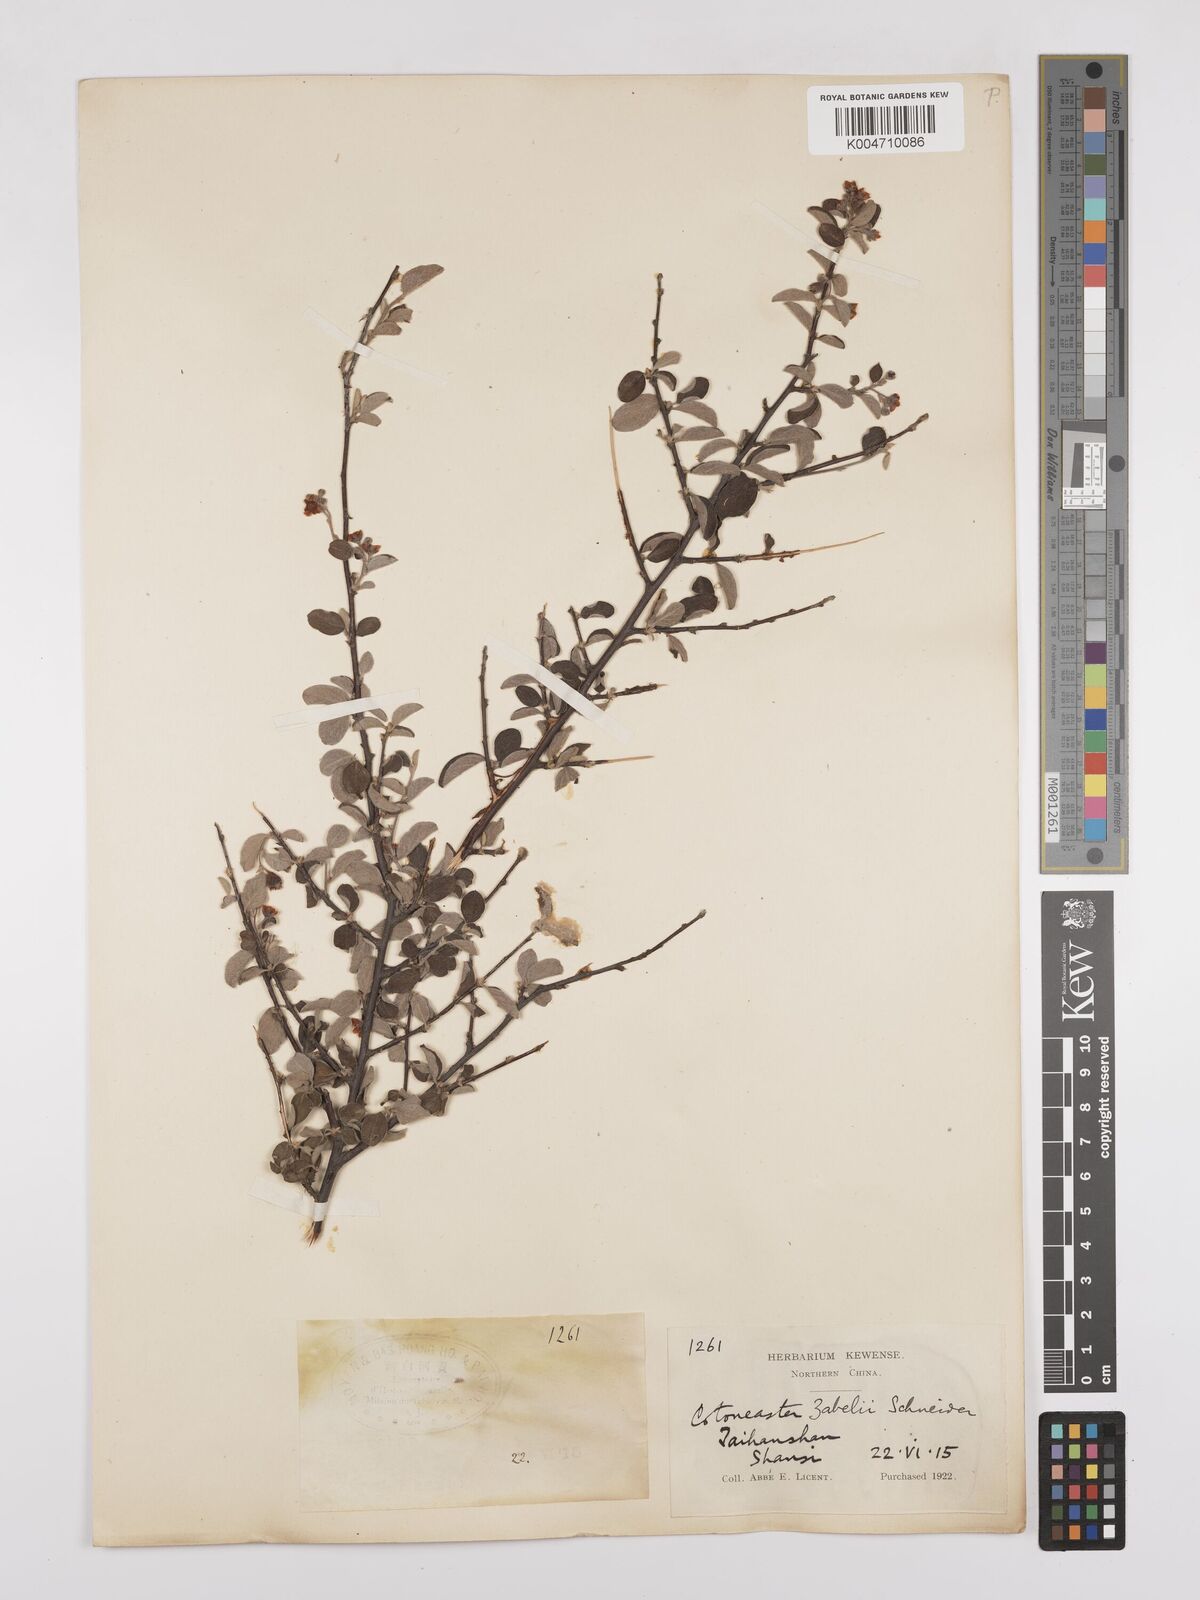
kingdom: Plantae
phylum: Tracheophyta
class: Magnoliopsida
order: Rosales
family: Rosaceae
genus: Cotoneaster
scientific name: Cotoneaster zabelii
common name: Cherryred cotoneaster
